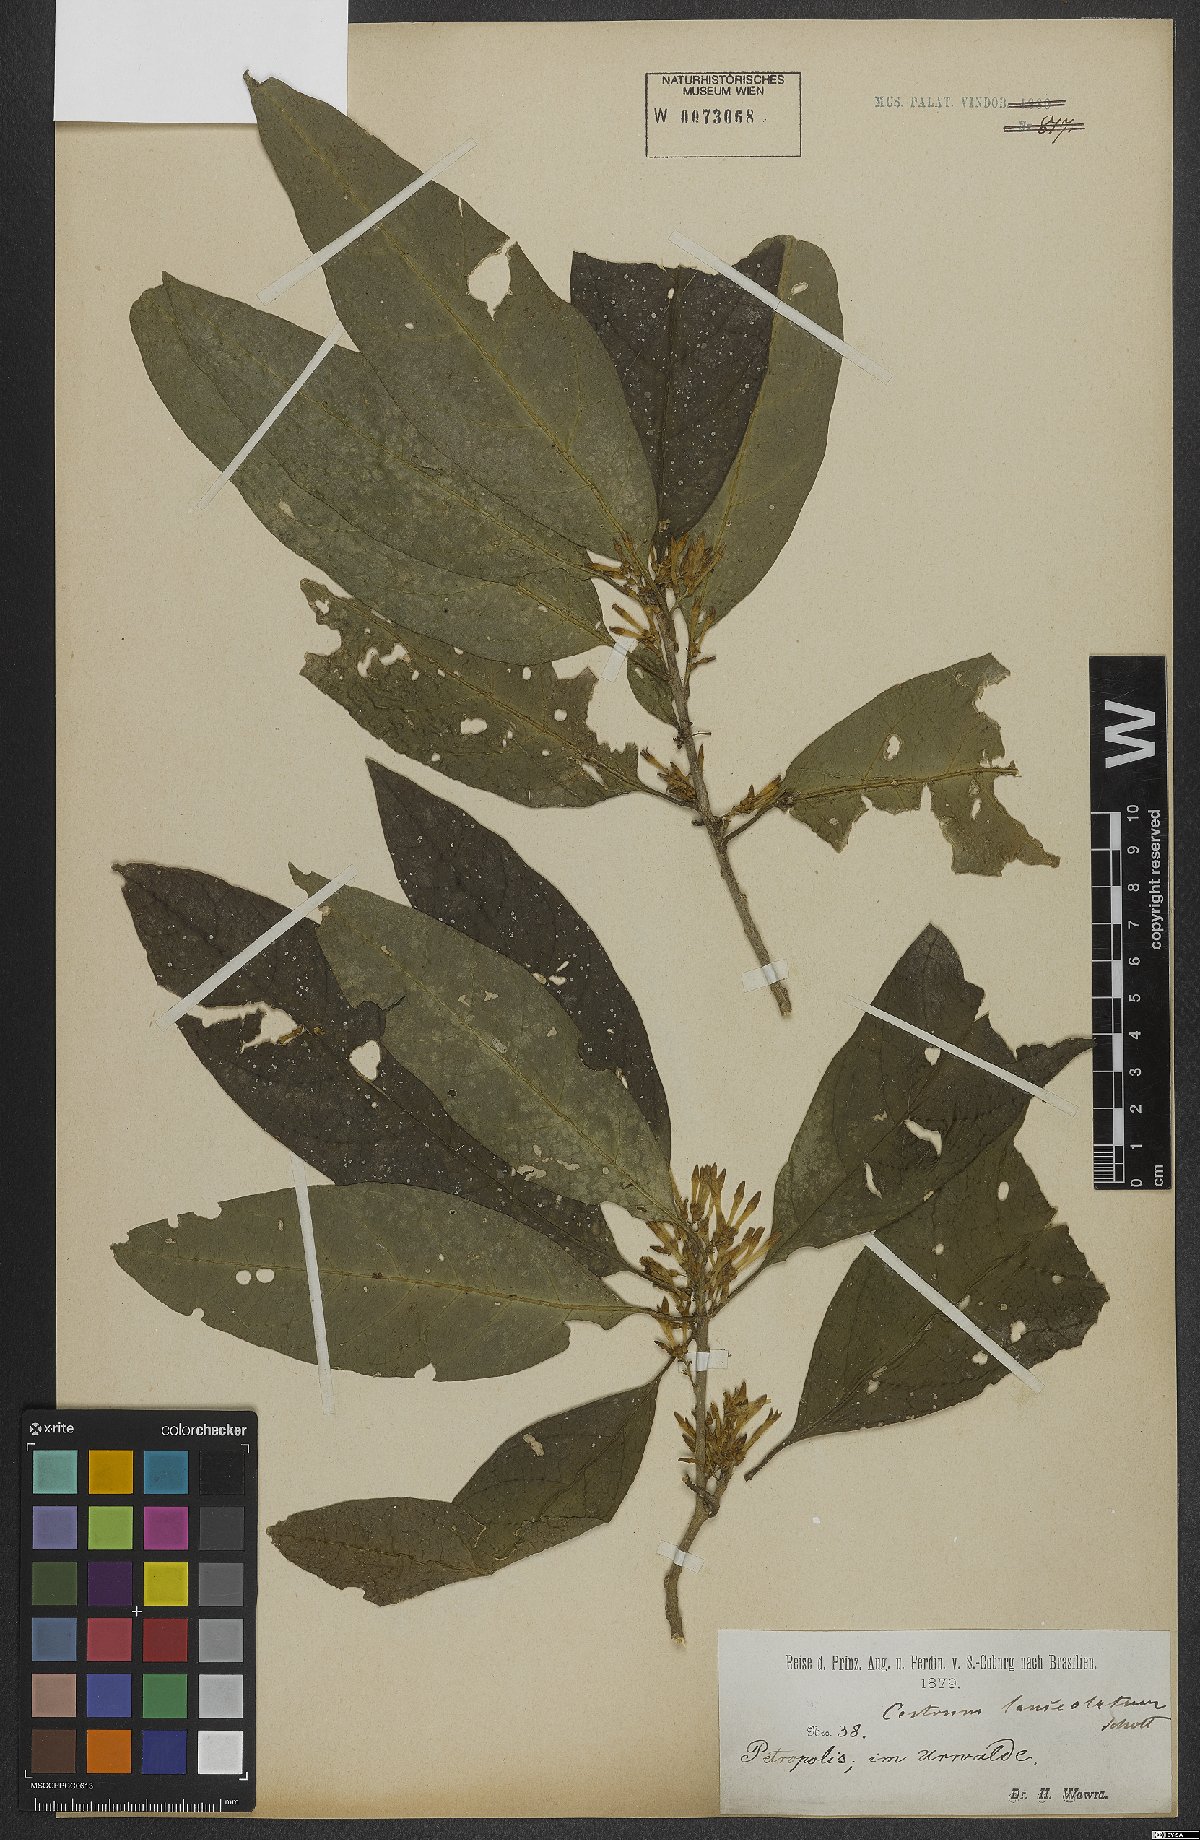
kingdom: Plantae
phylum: Tracheophyta
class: Magnoliopsida
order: Solanales
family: Solanaceae
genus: Cestrum
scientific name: Cestrum bracteatum
